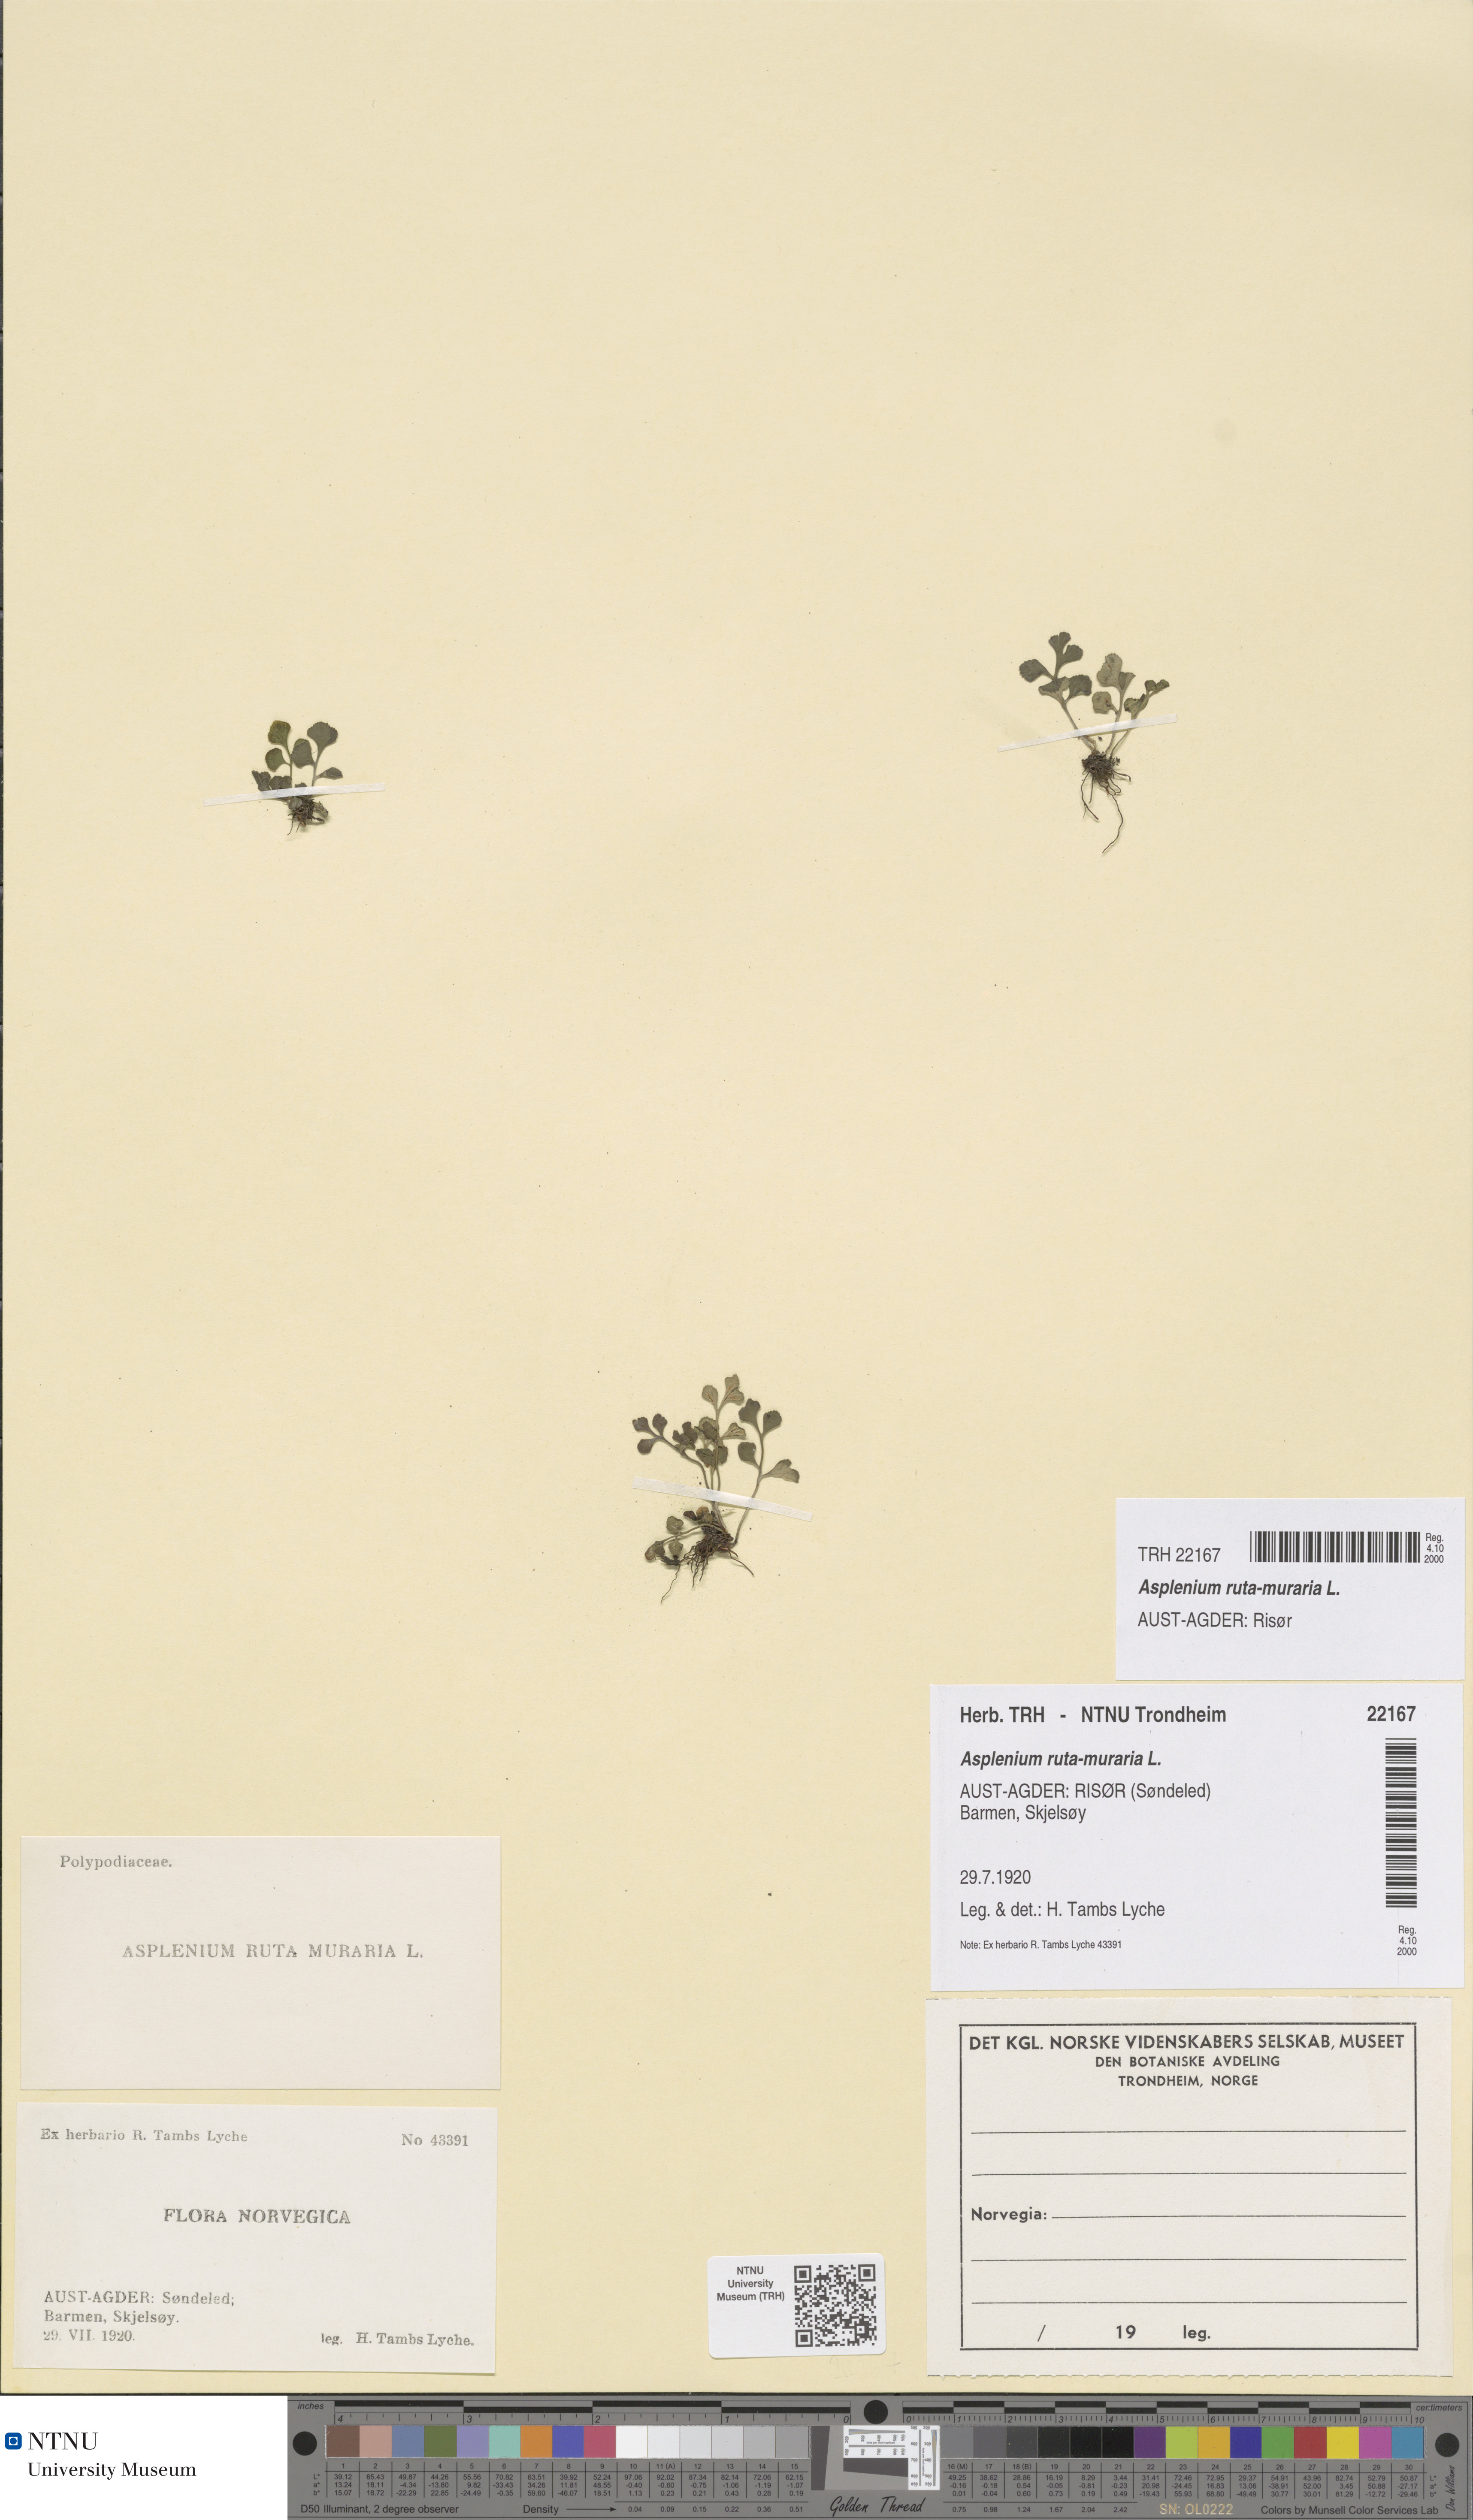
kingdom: Plantae
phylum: Tracheophyta
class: Polypodiopsida
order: Polypodiales
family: Aspleniaceae
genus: Asplenium
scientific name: Asplenium ruta-muraria
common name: Wall-rue
